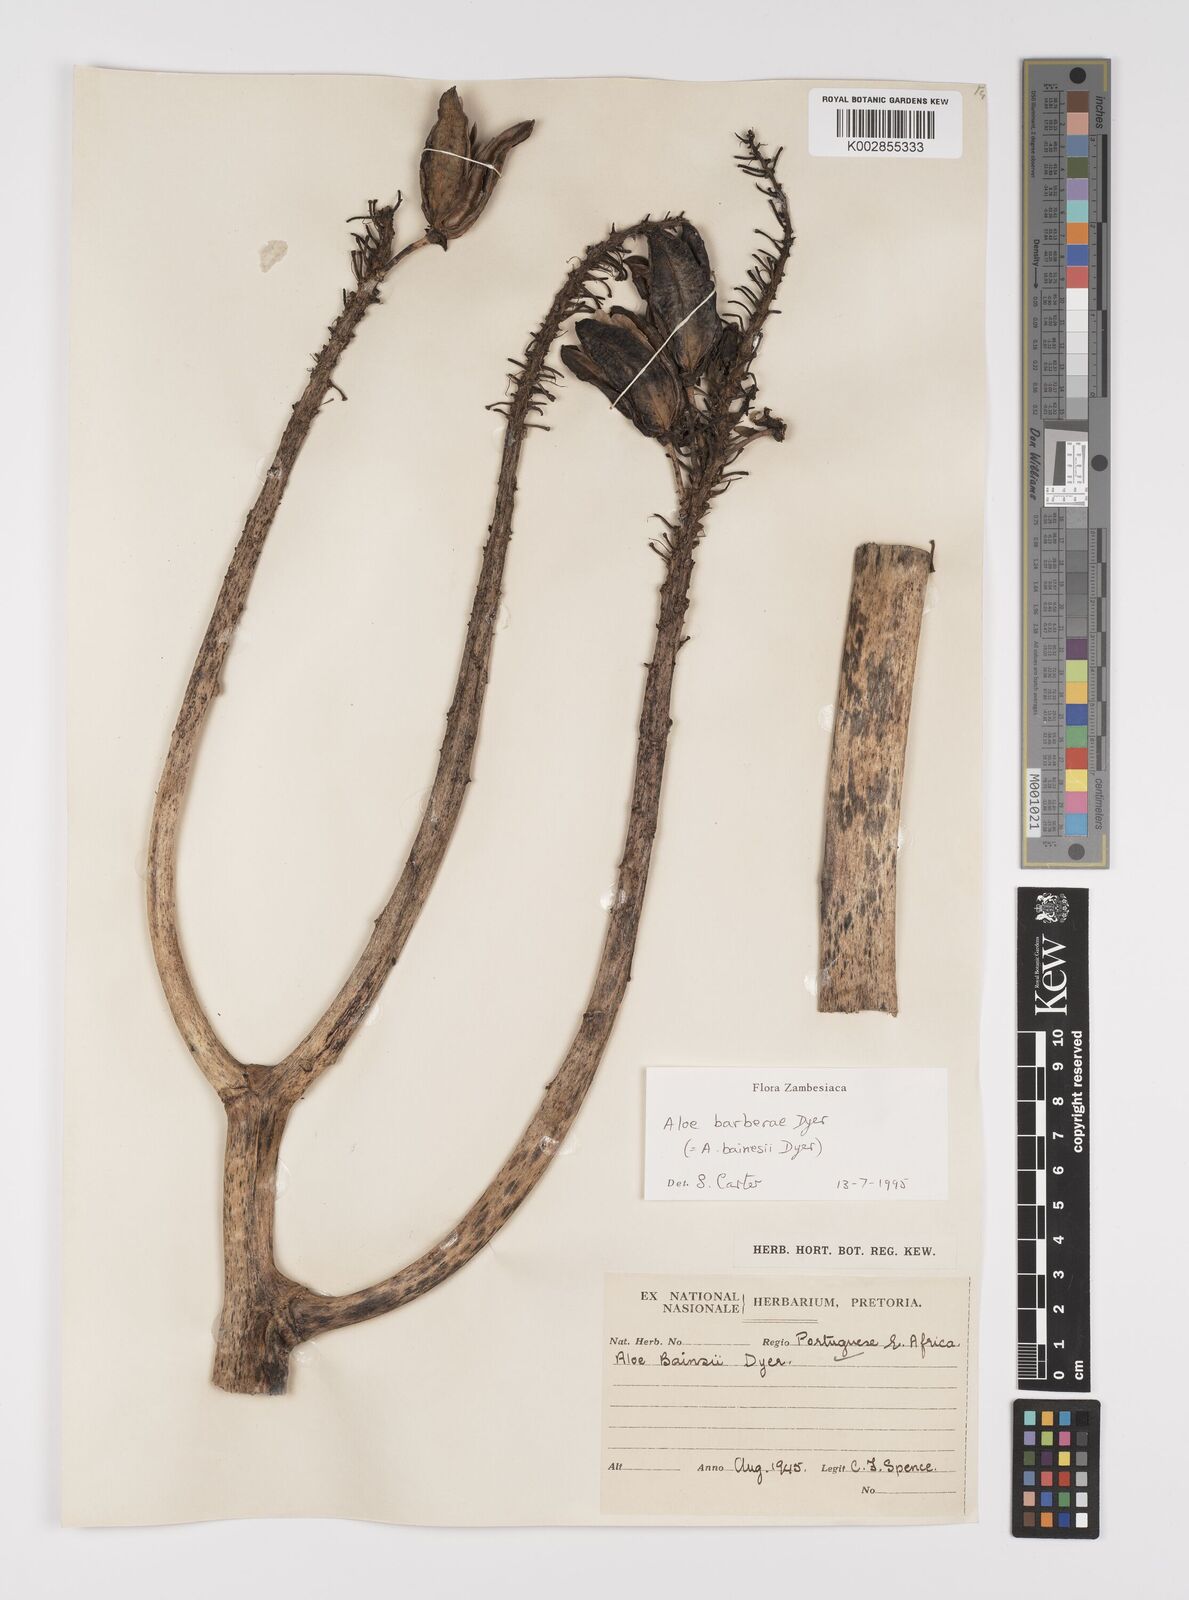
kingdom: Plantae
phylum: Tracheophyta
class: Liliopsida
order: Asparagales
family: Asphodelaceae
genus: Aloidendron
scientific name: Aloidendron barberae
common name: Tree aloe
